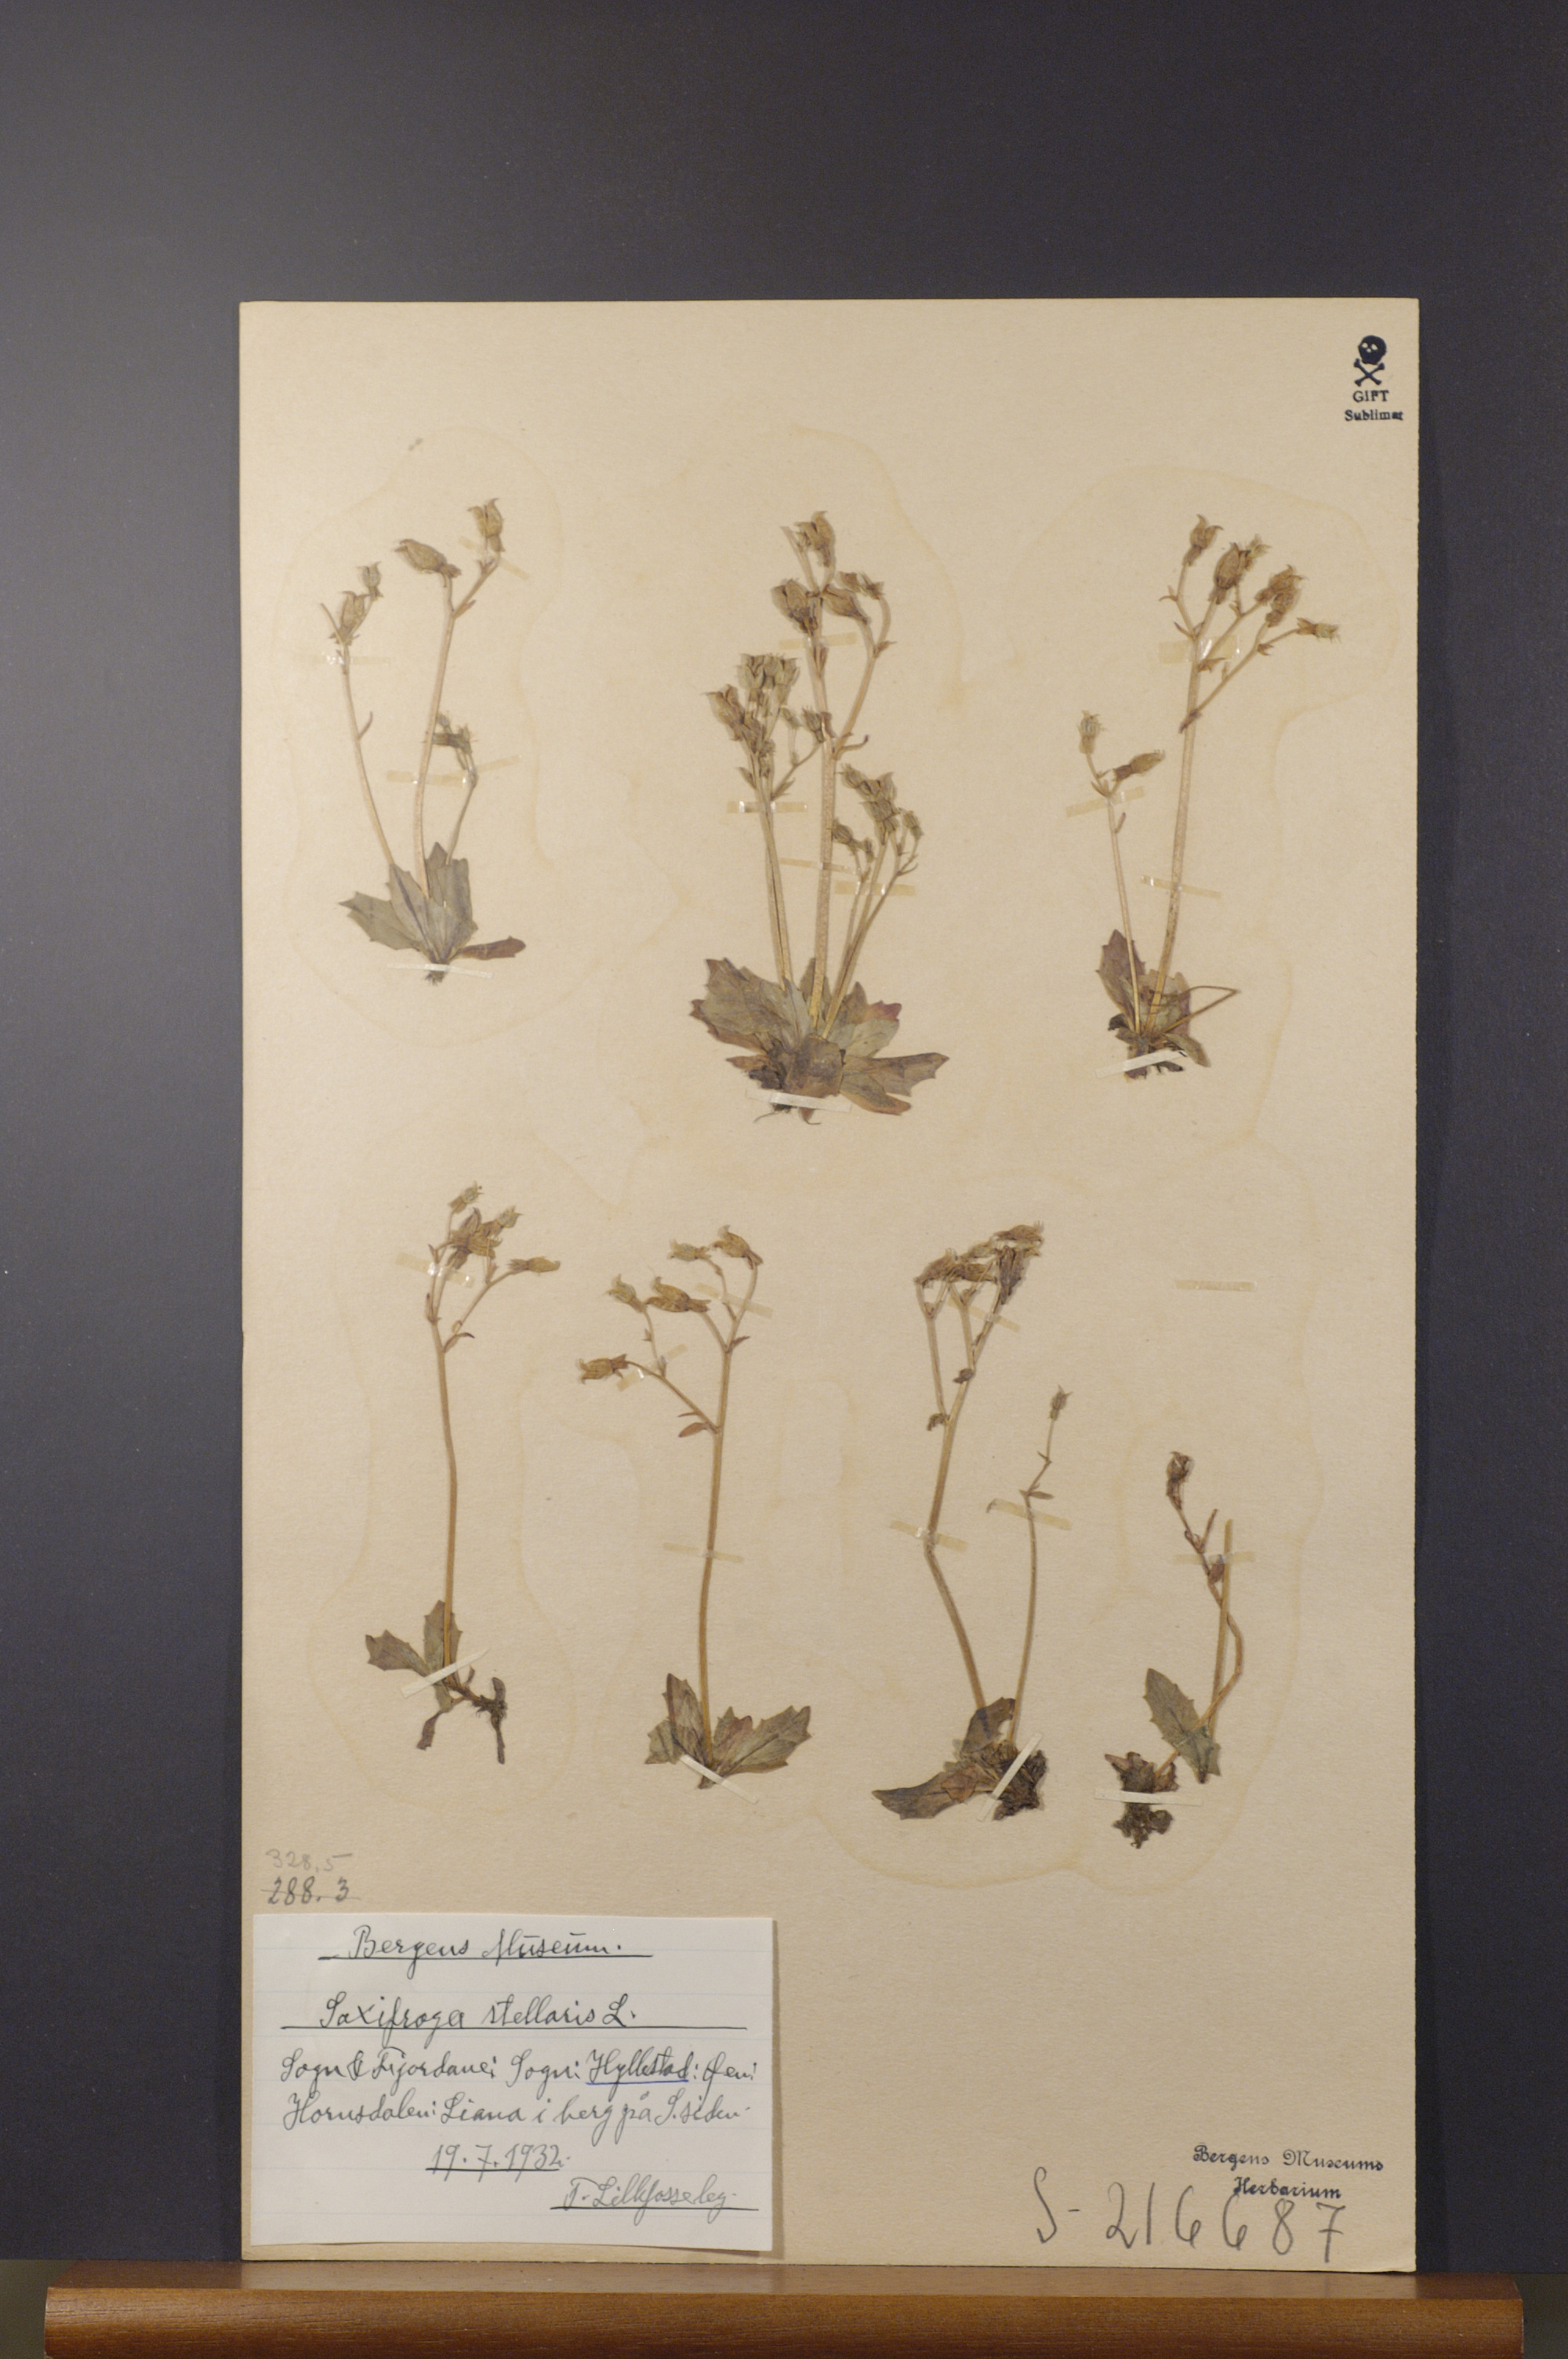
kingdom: Plantae
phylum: Tracheophyta
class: Magnoliopsida
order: Saxifragales
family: Saxifragaceae
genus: Micranthes
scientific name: Micranthes stellaris
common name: Starry saxifrage
